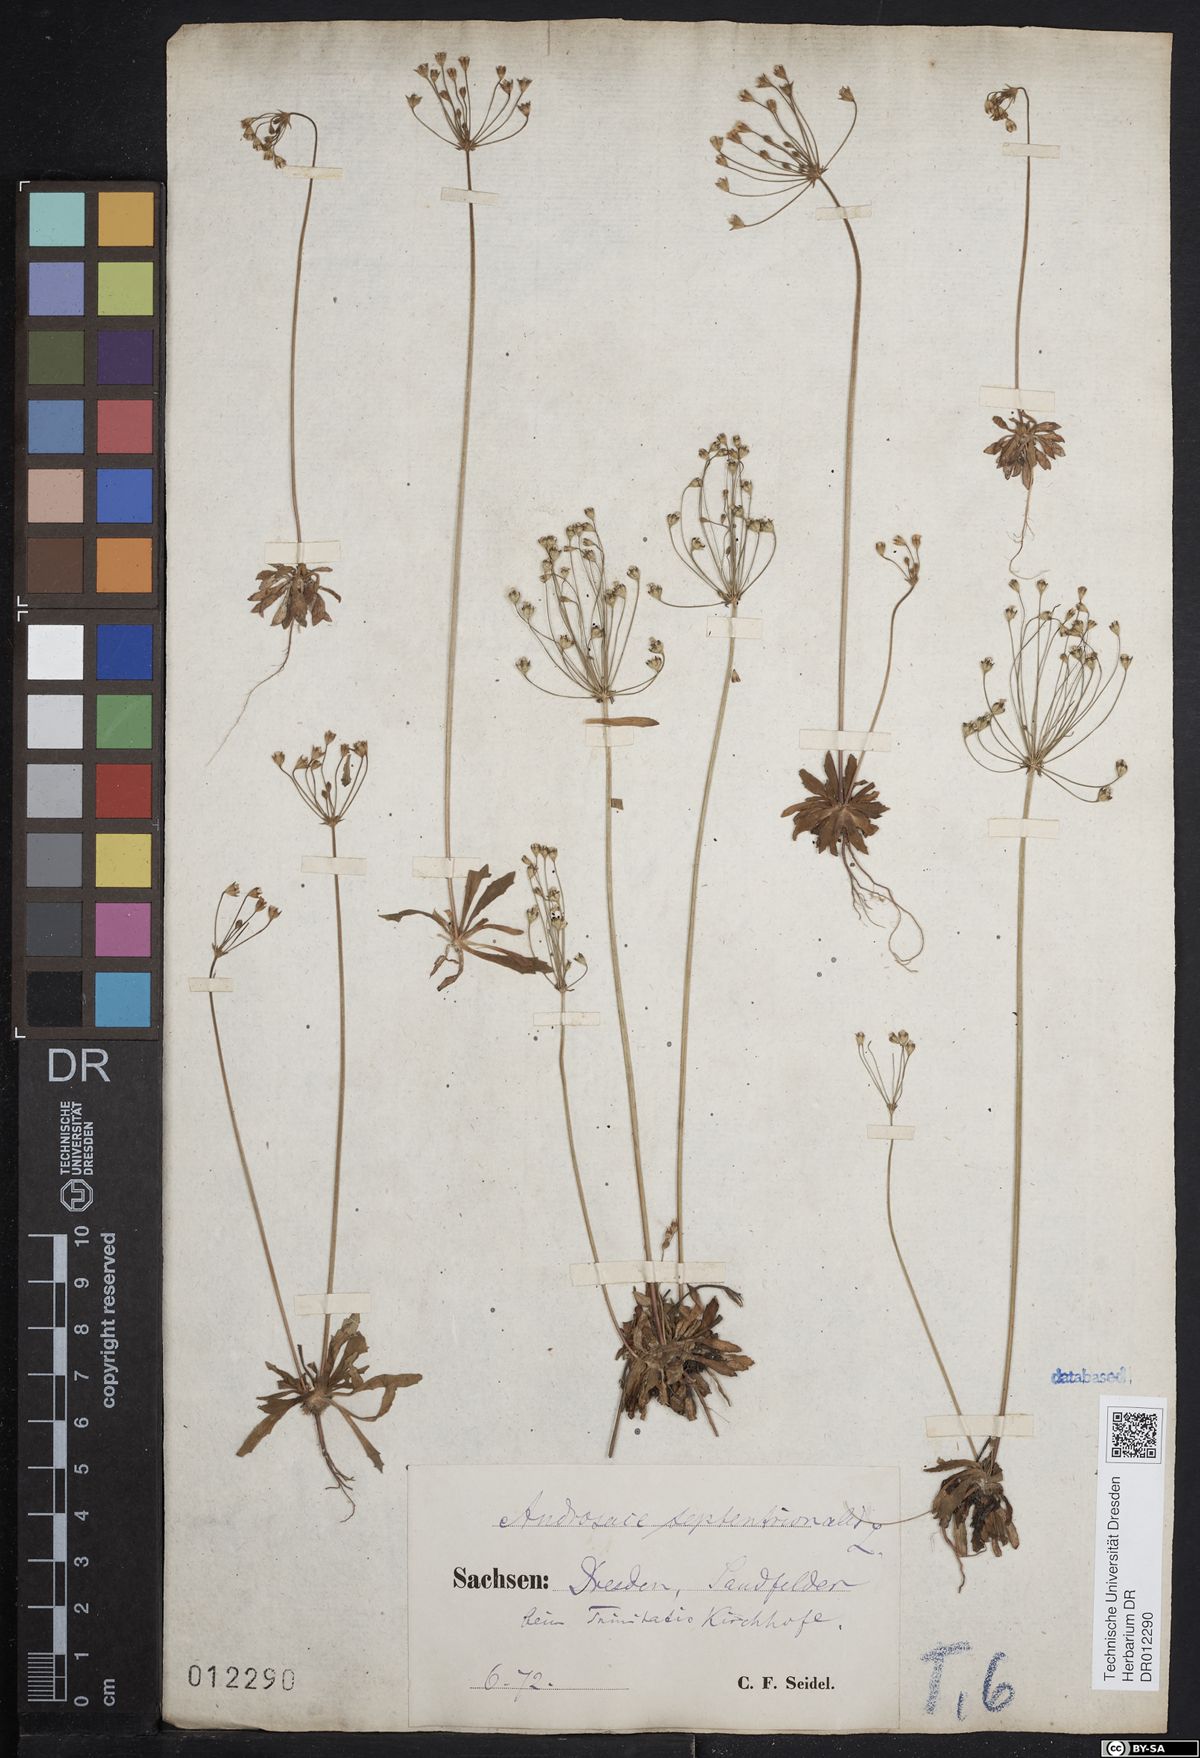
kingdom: Plantae
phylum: Tracheophyta
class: Magnoliopsida
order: Ericales
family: Primulaceae
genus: Androsace
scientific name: Androsace septentrionalis
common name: Hairy northern fairy-candelabra
